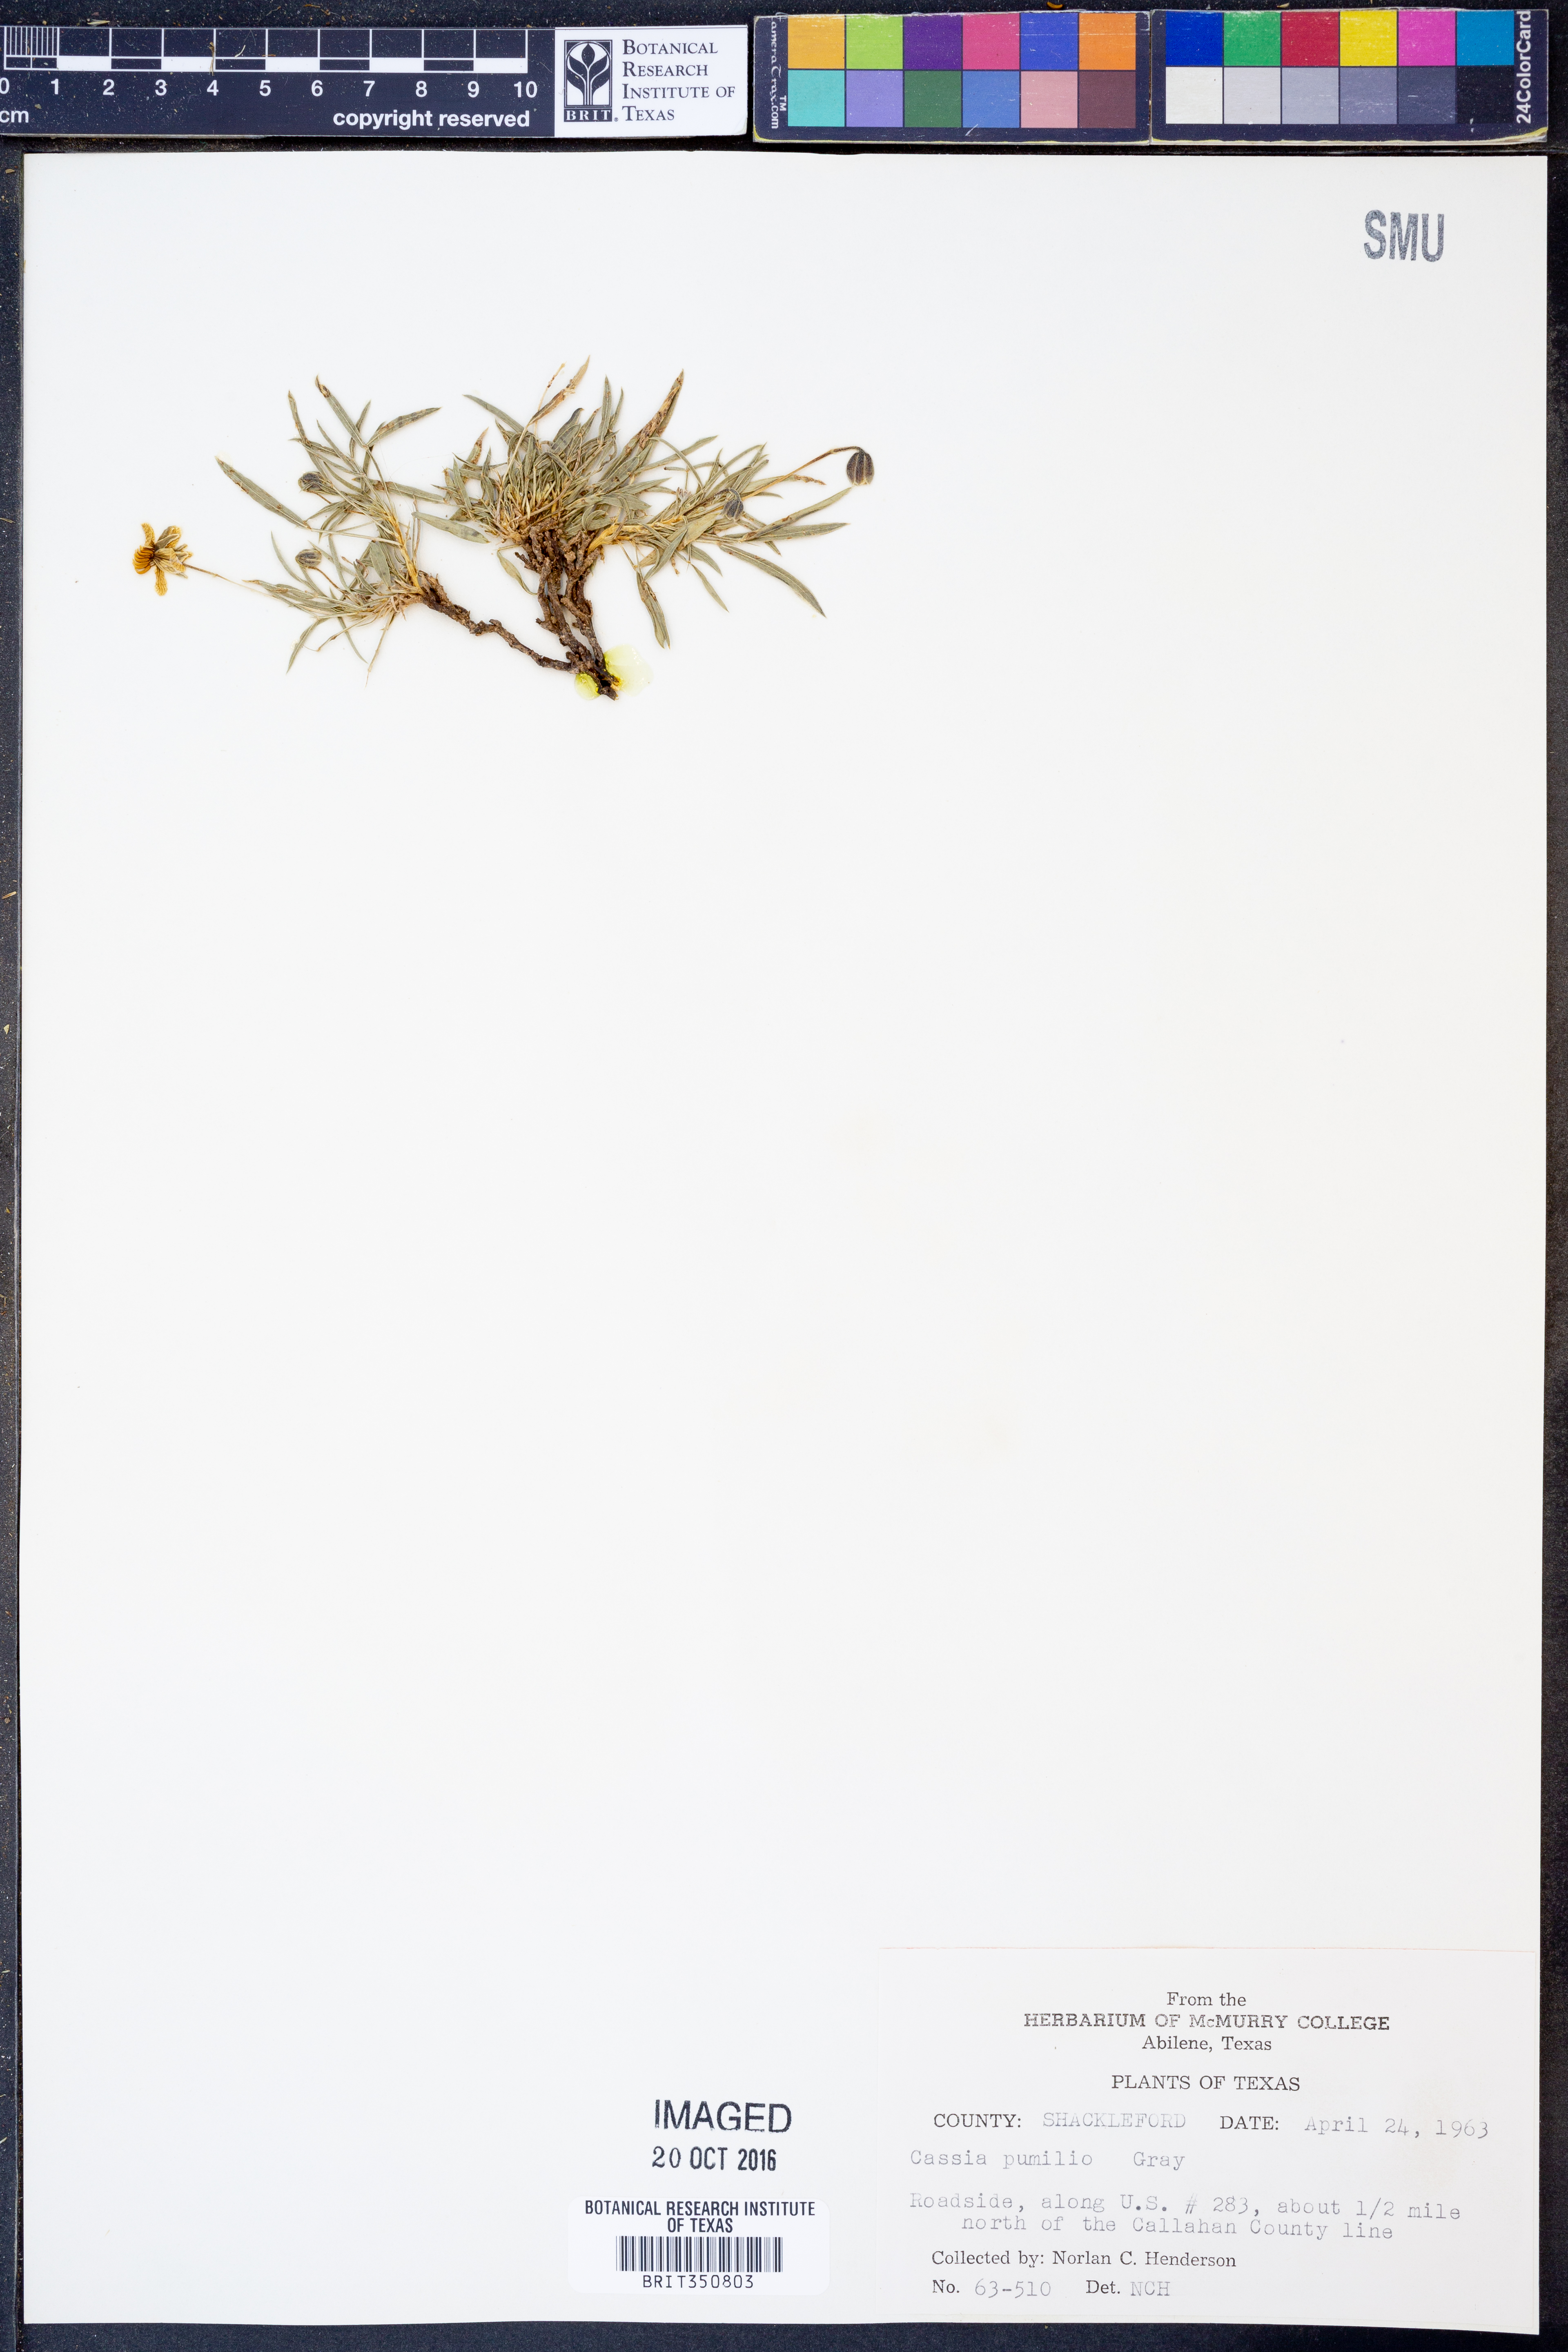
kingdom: Plantae
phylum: Tracheophyta
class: Magnoliopsida
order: Fabales
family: Fabaceae
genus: Senna
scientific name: Senna pumilio
